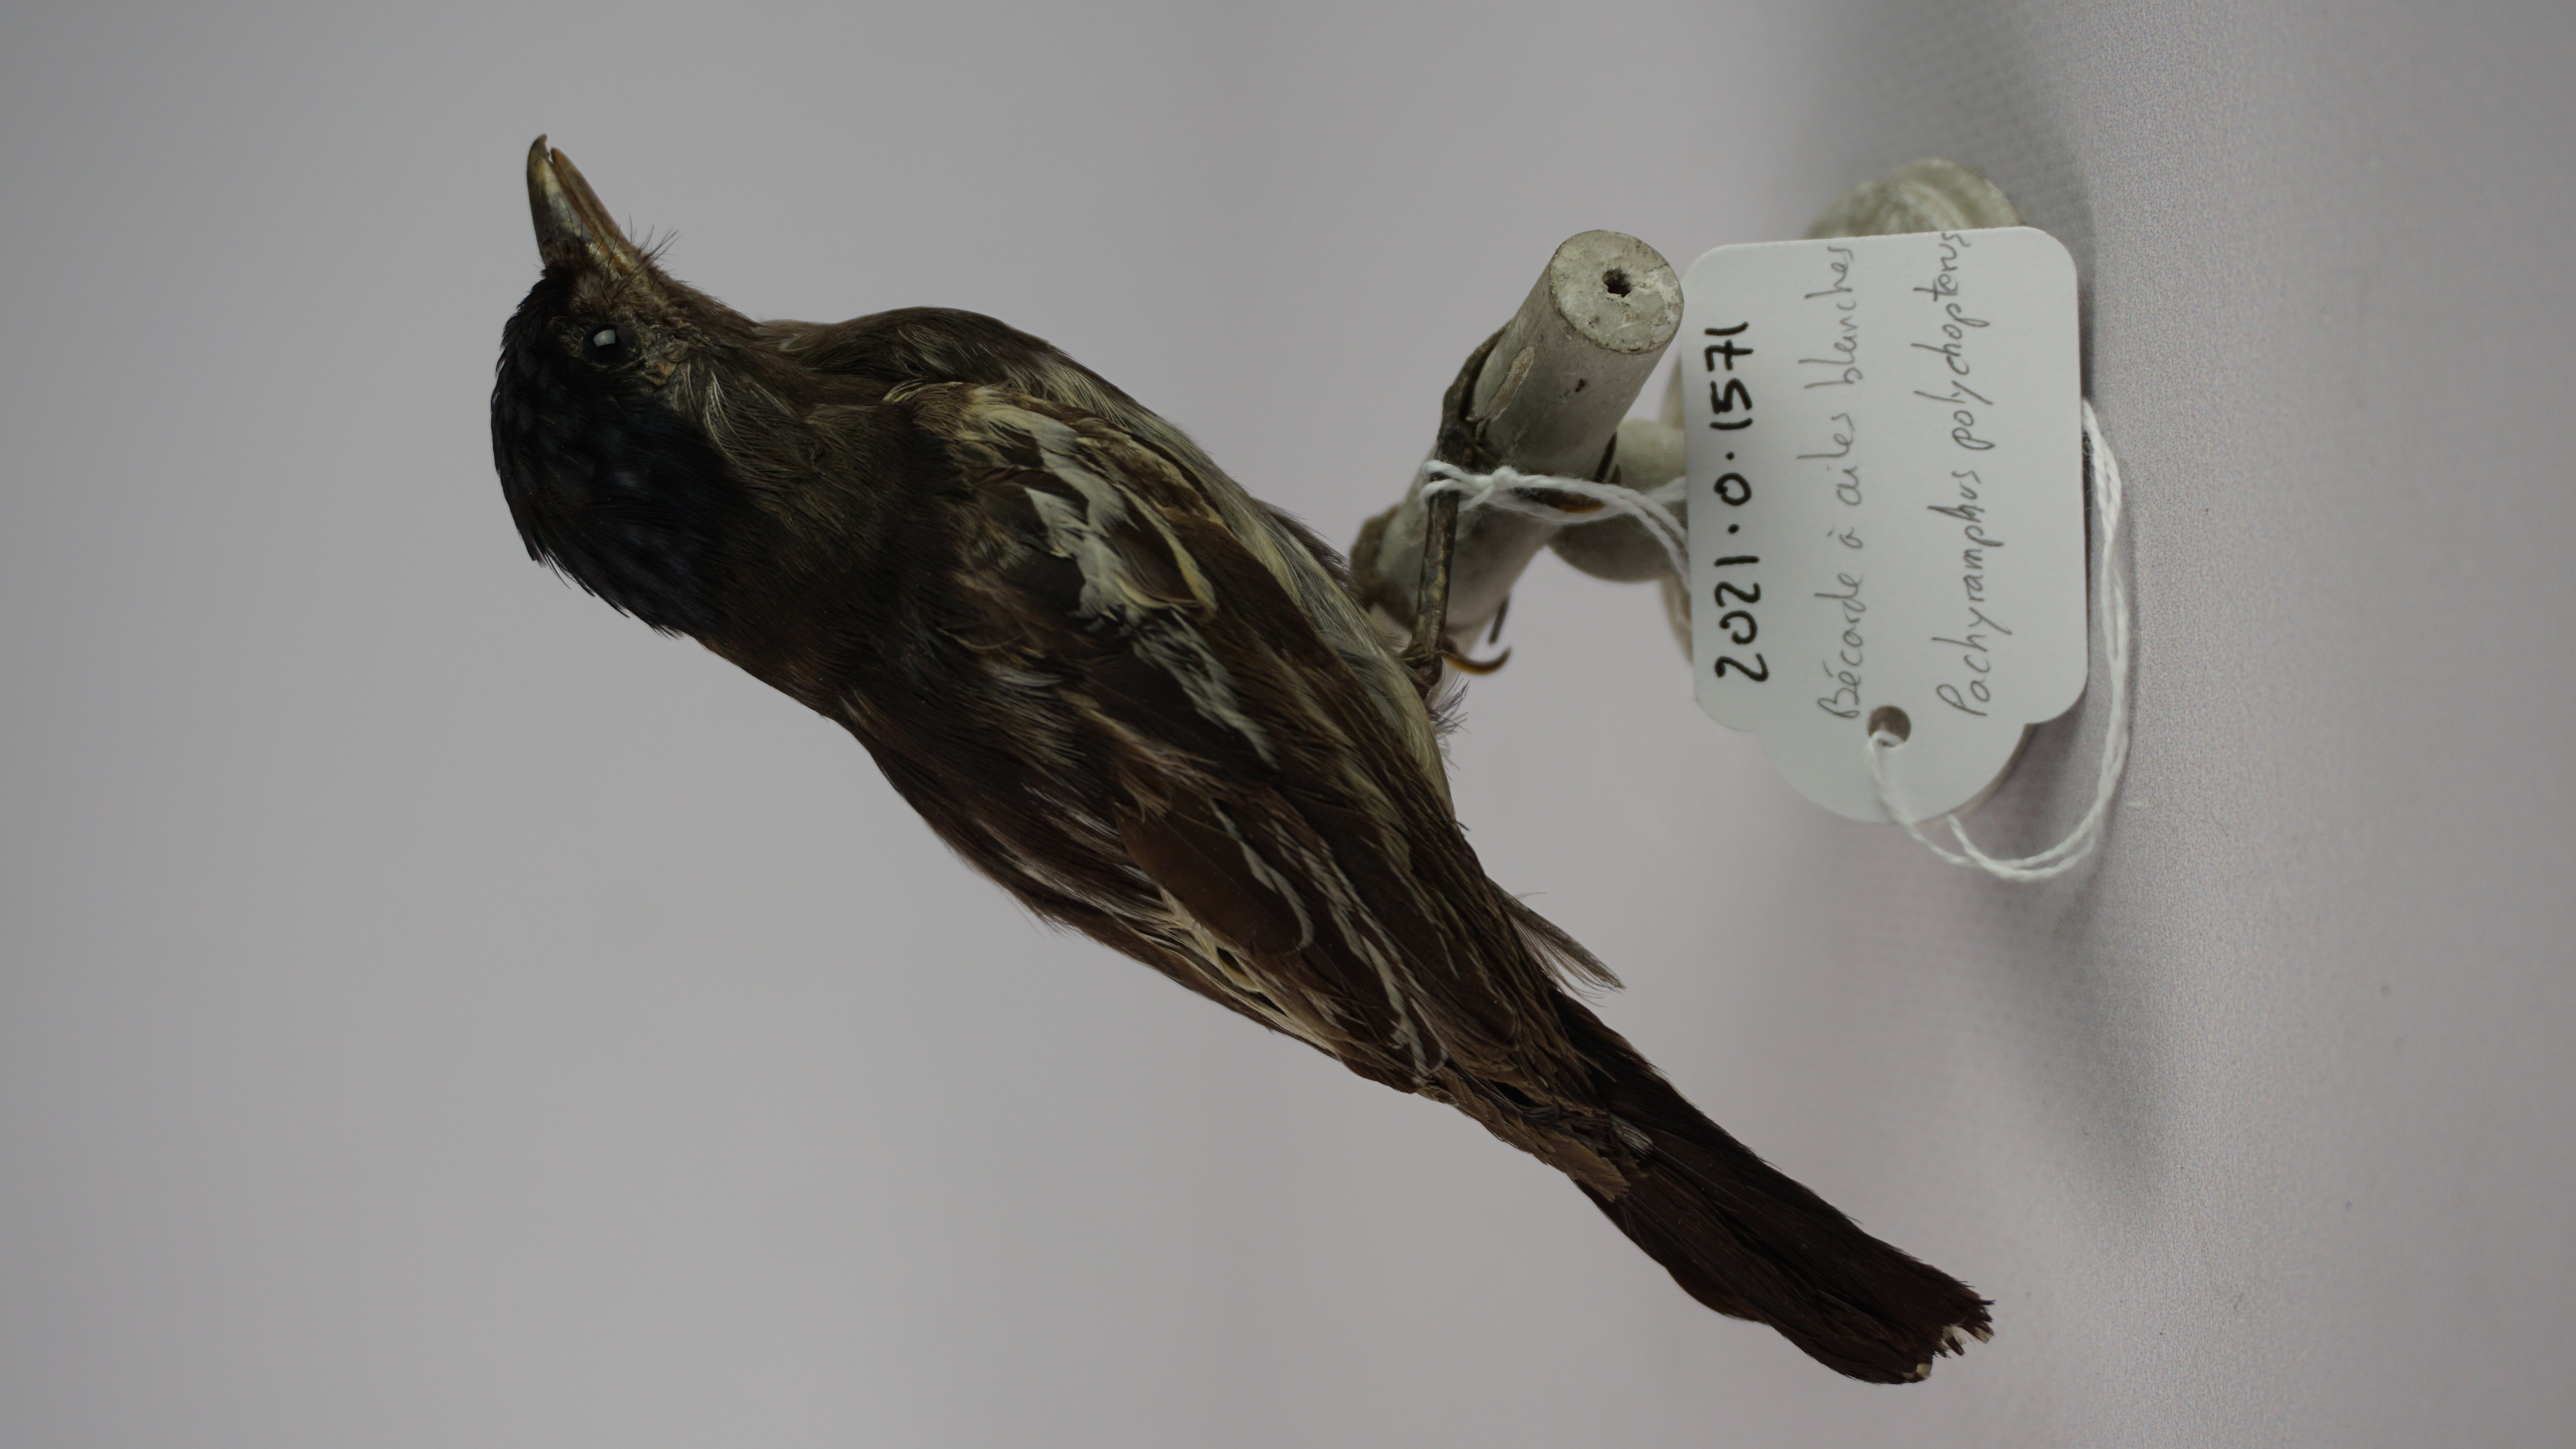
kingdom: Animalia
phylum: Chordata
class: Aves
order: Passeriformes
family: Cotingidae
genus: Pachyramphus
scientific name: Pachyramphus polychopterus
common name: White-winged becard
